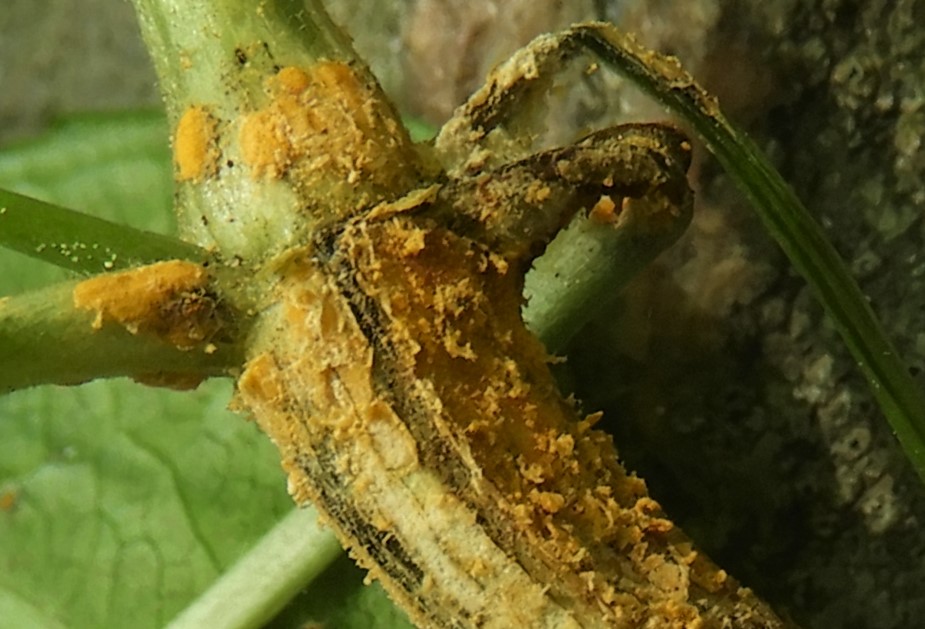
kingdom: Fungi
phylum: Basidiomycota
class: Pucciniomycetes
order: Pucciniales
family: Melampsoraceae
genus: Melampsora
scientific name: Melampsora populnea
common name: poppel-skorperust
